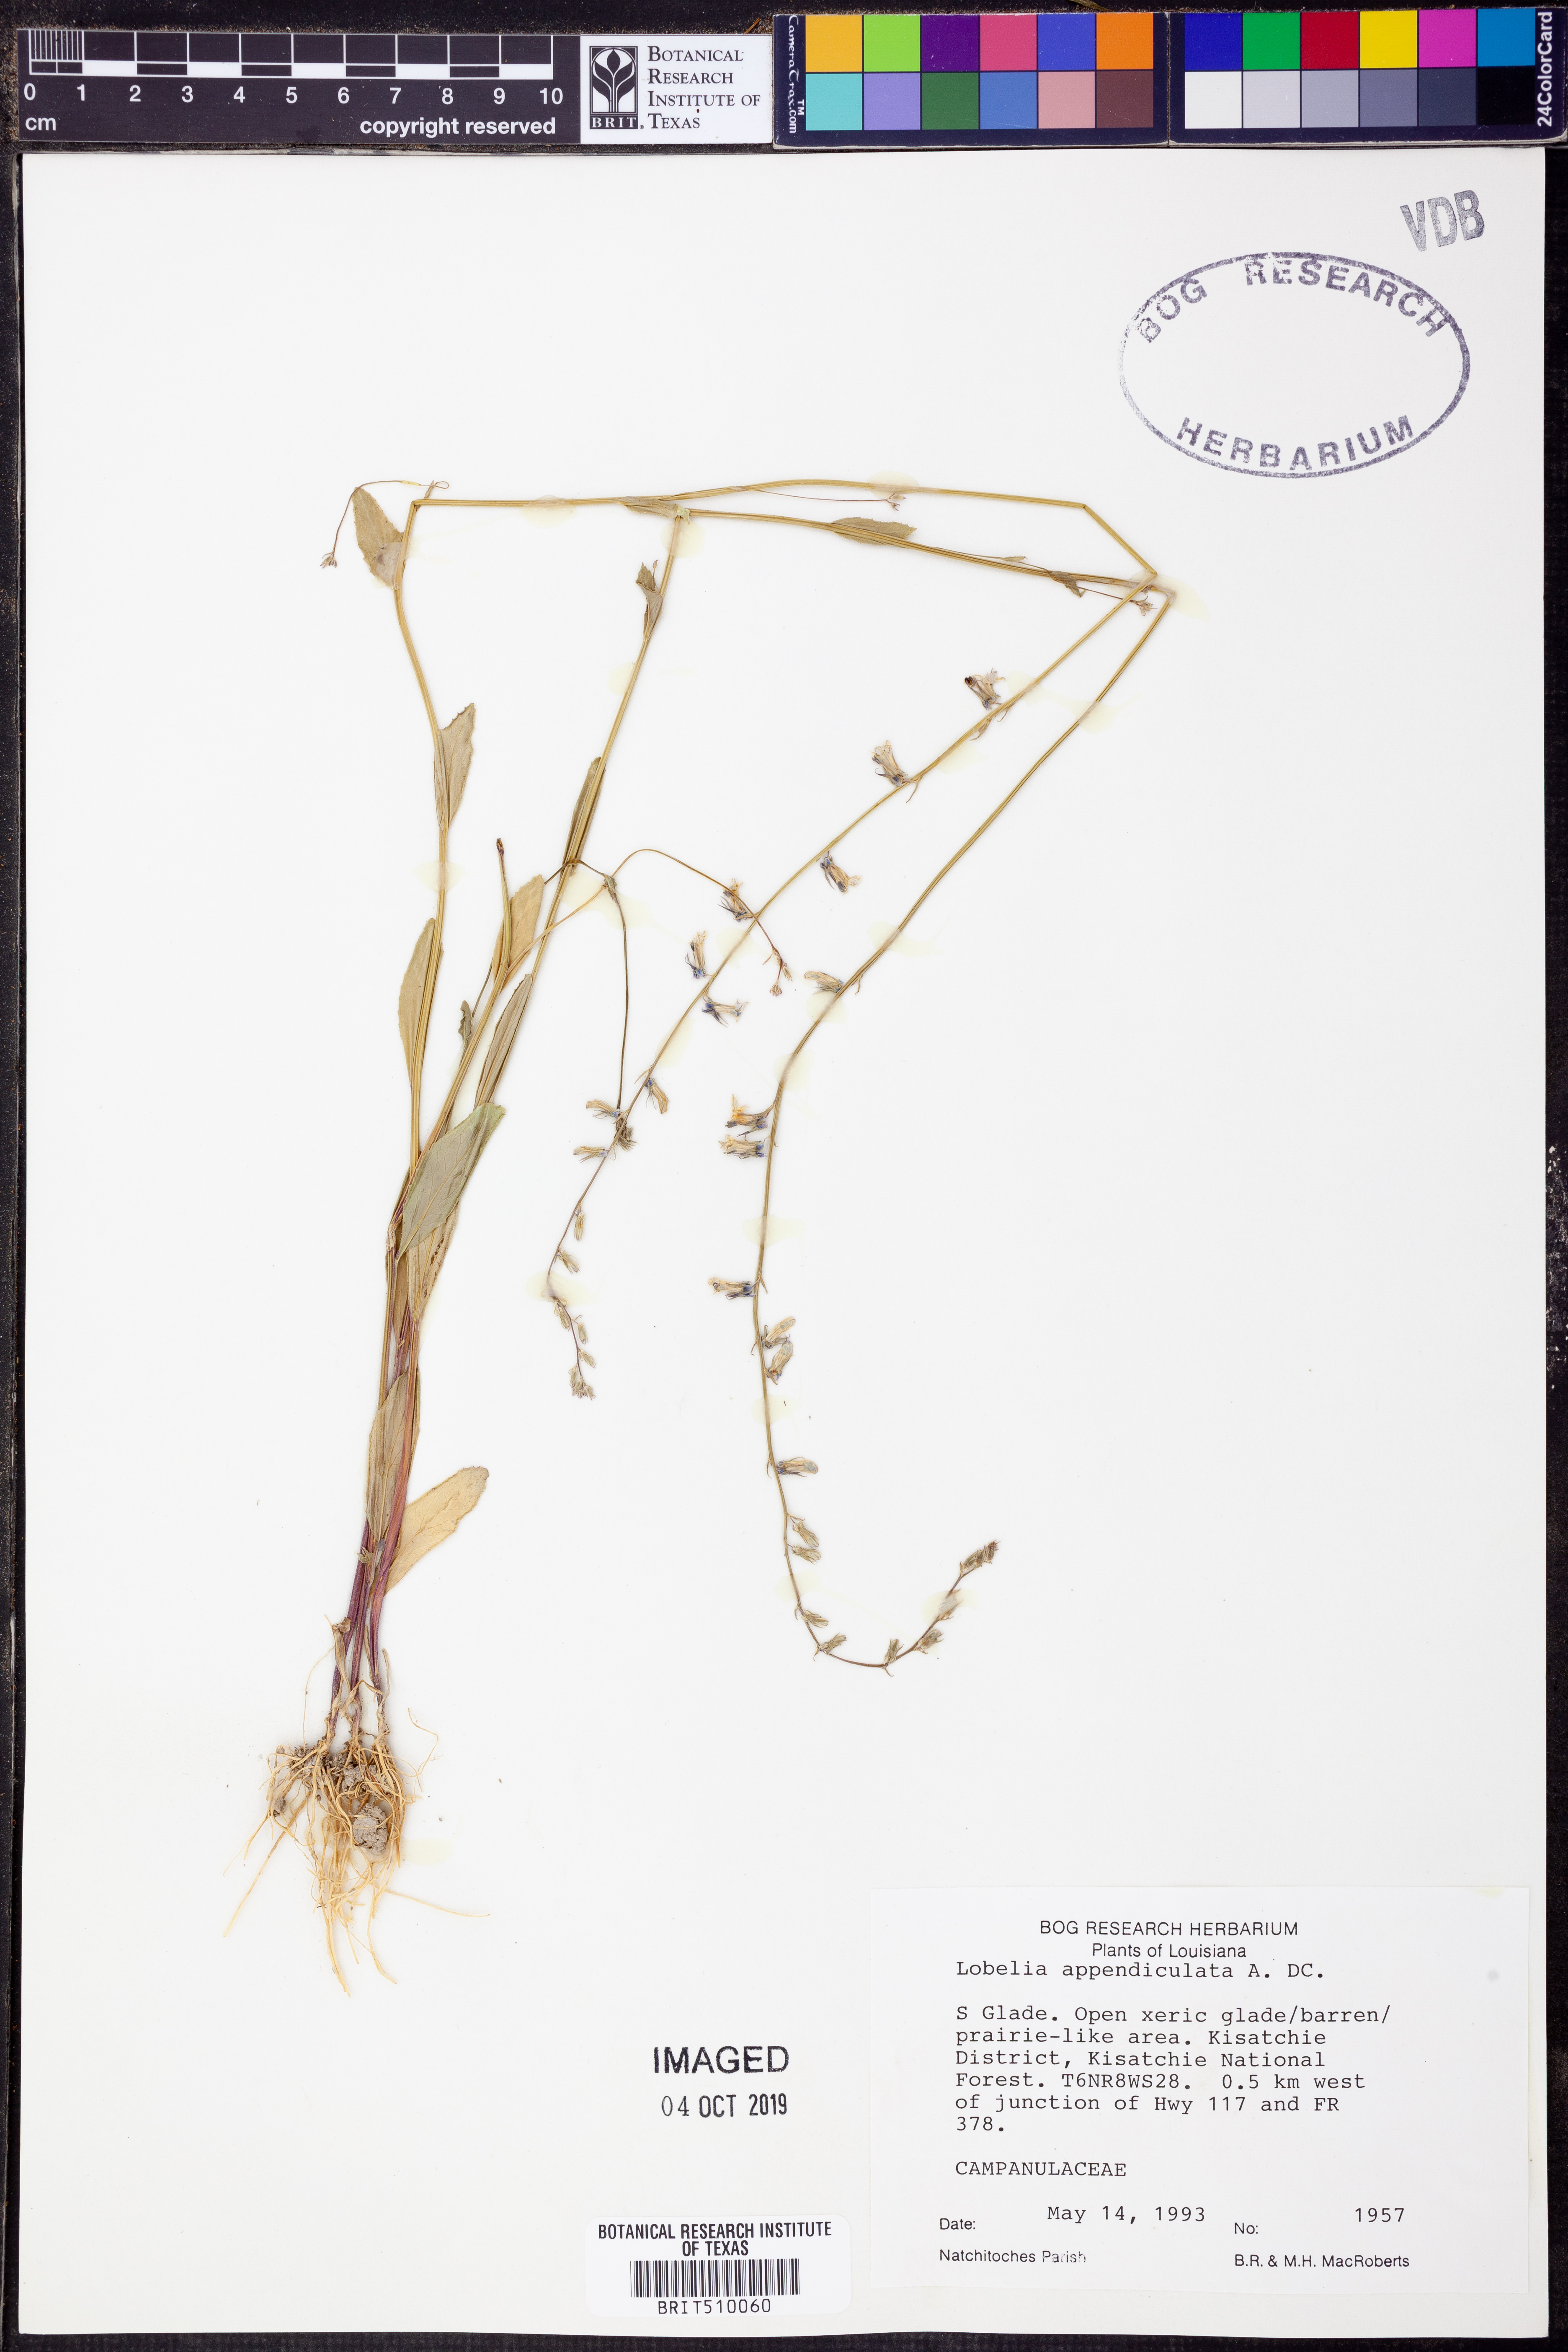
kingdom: Plantae
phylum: Tracheophyta
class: Magnoliopsida
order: Asterales
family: Campanulaceae
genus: Lobelia
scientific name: Lobelia appendiculata
